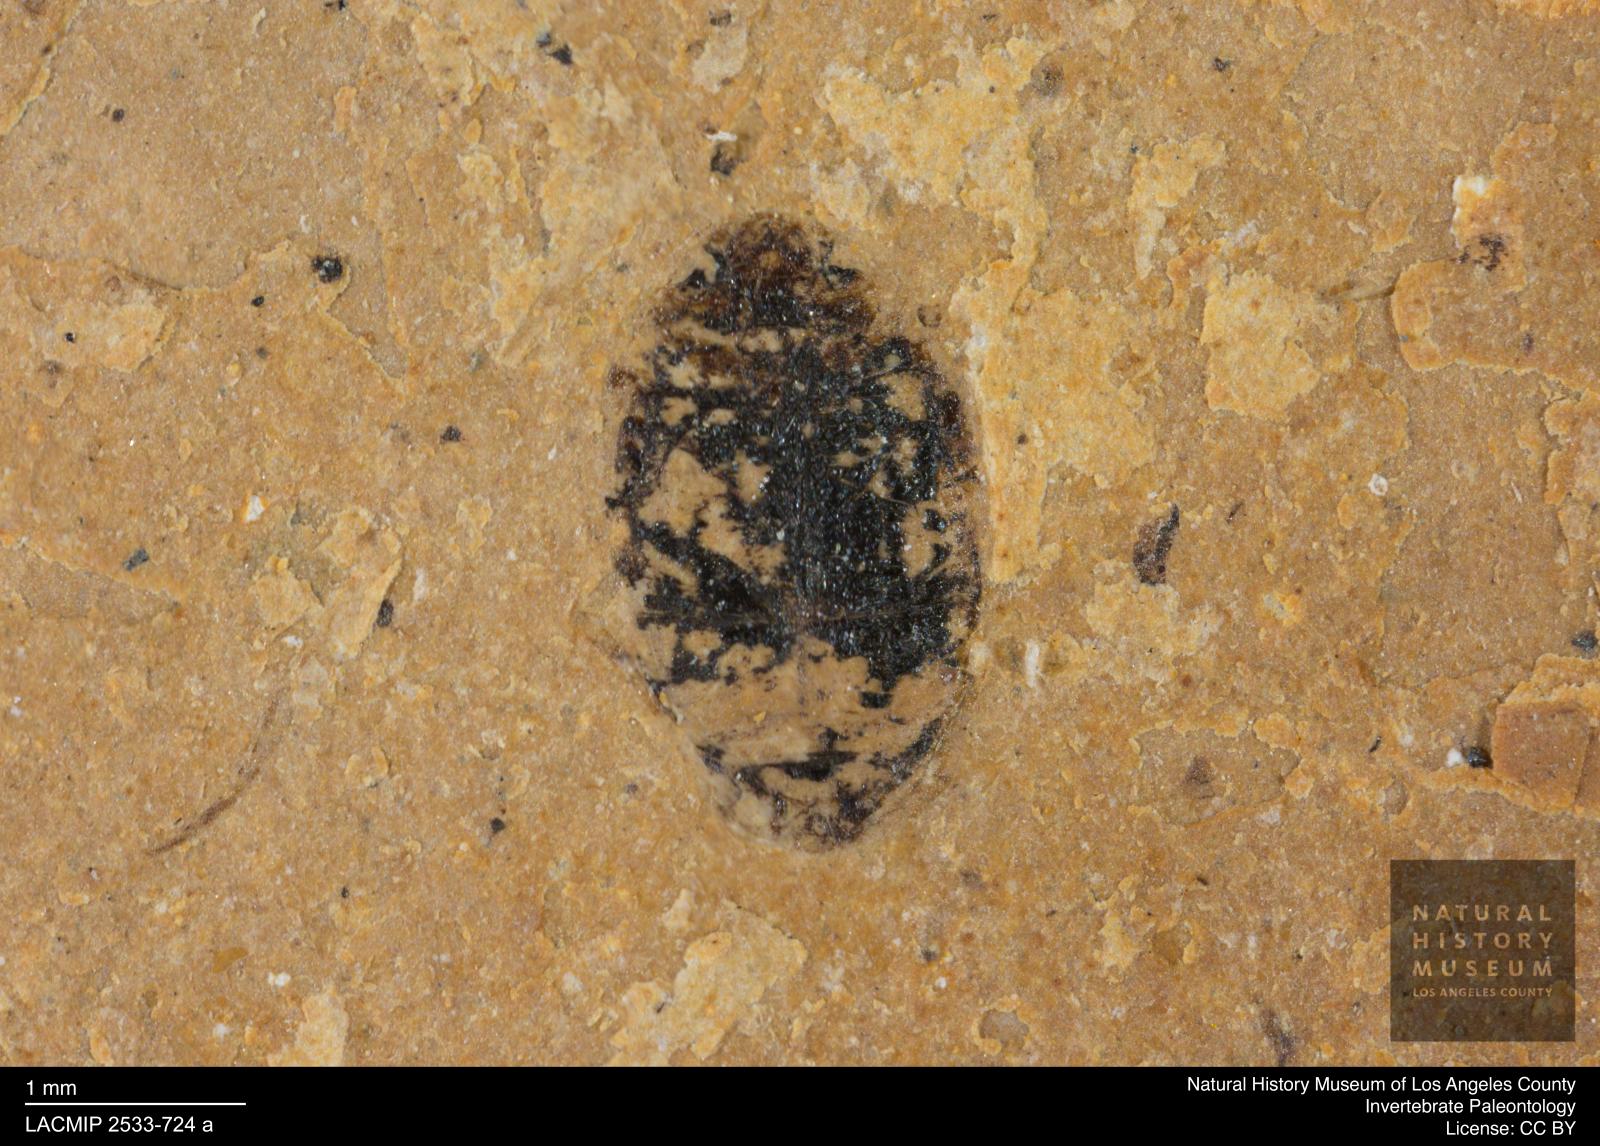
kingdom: Animalia
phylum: Arthropoda
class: Insecta
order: Coleoptera
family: Dytiscidae
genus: Oreodytes
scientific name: Oreodytes cryptolineatus
